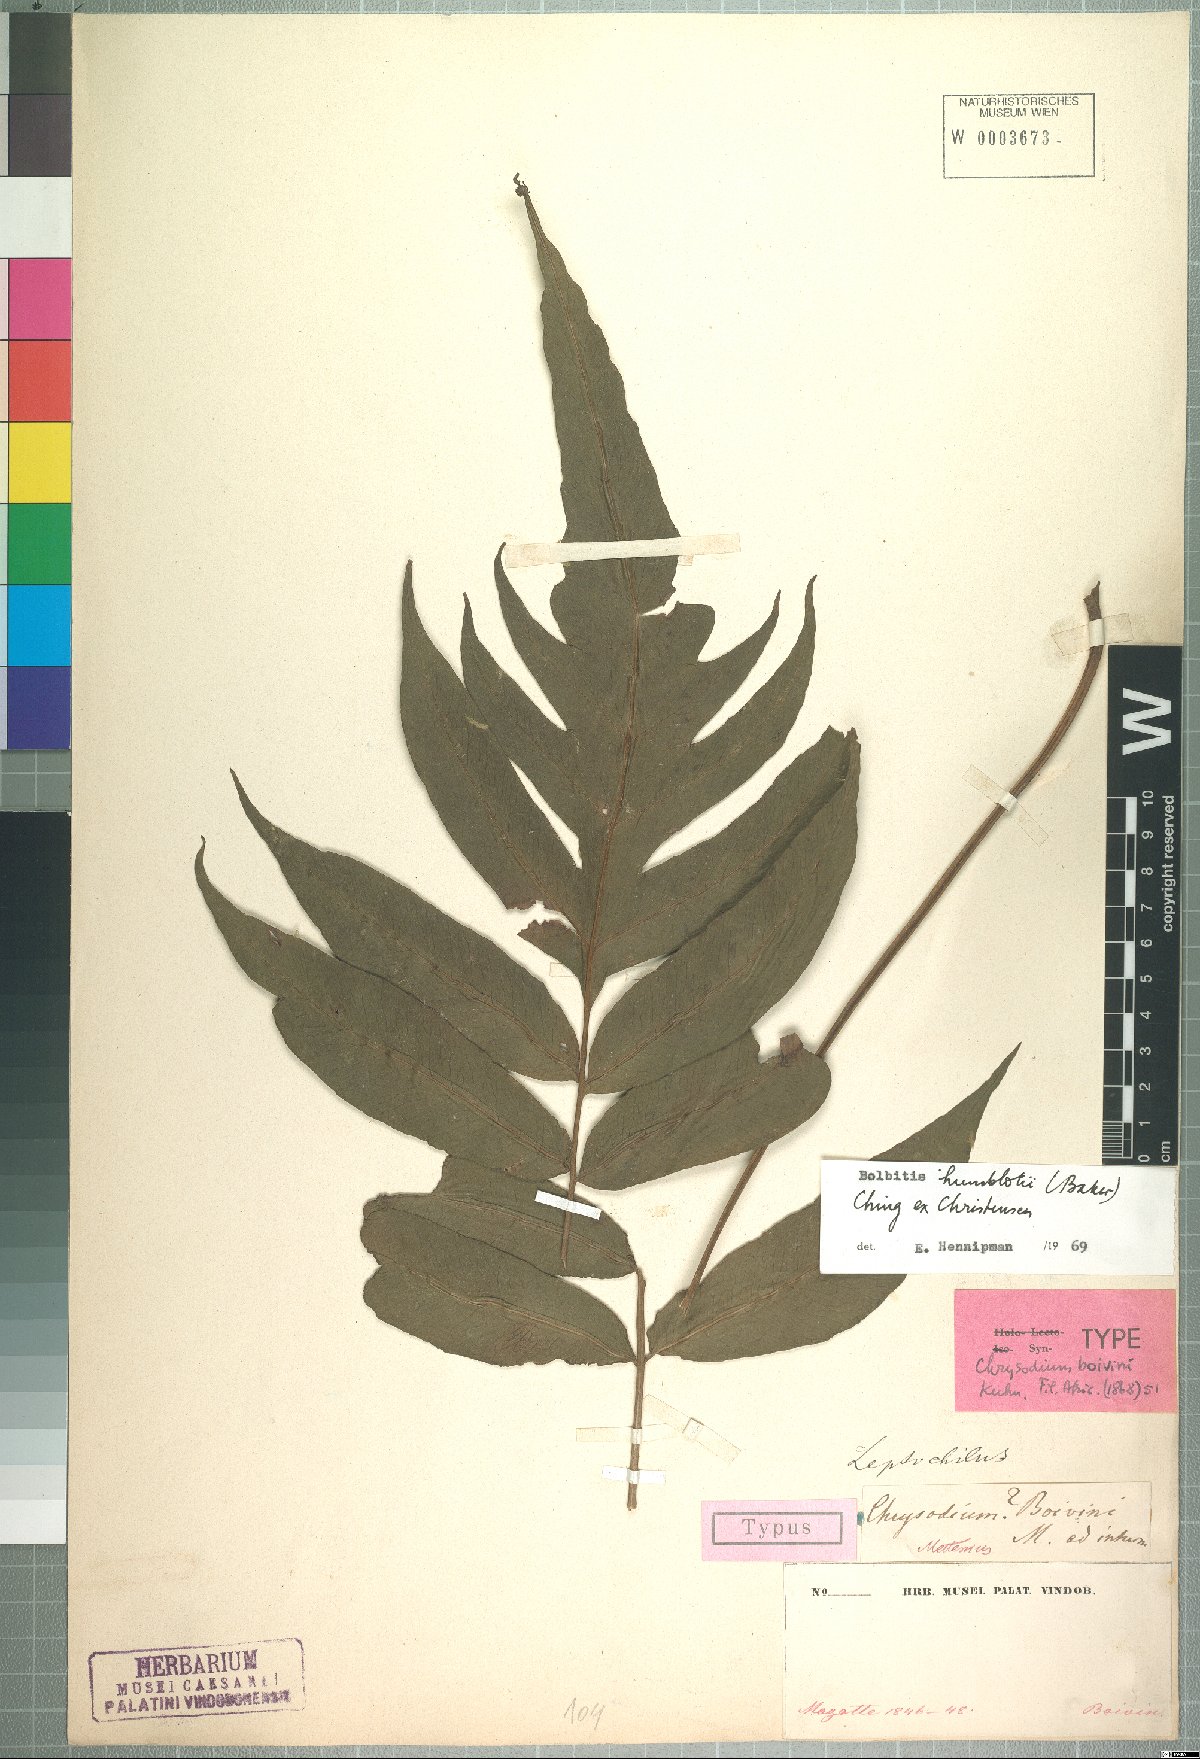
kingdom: Plantae
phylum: Tracheophyta
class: Polypodiopsida
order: Polypodiales
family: Dryopteridaceae
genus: Bolbitis
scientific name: Bolbitis humblotii
